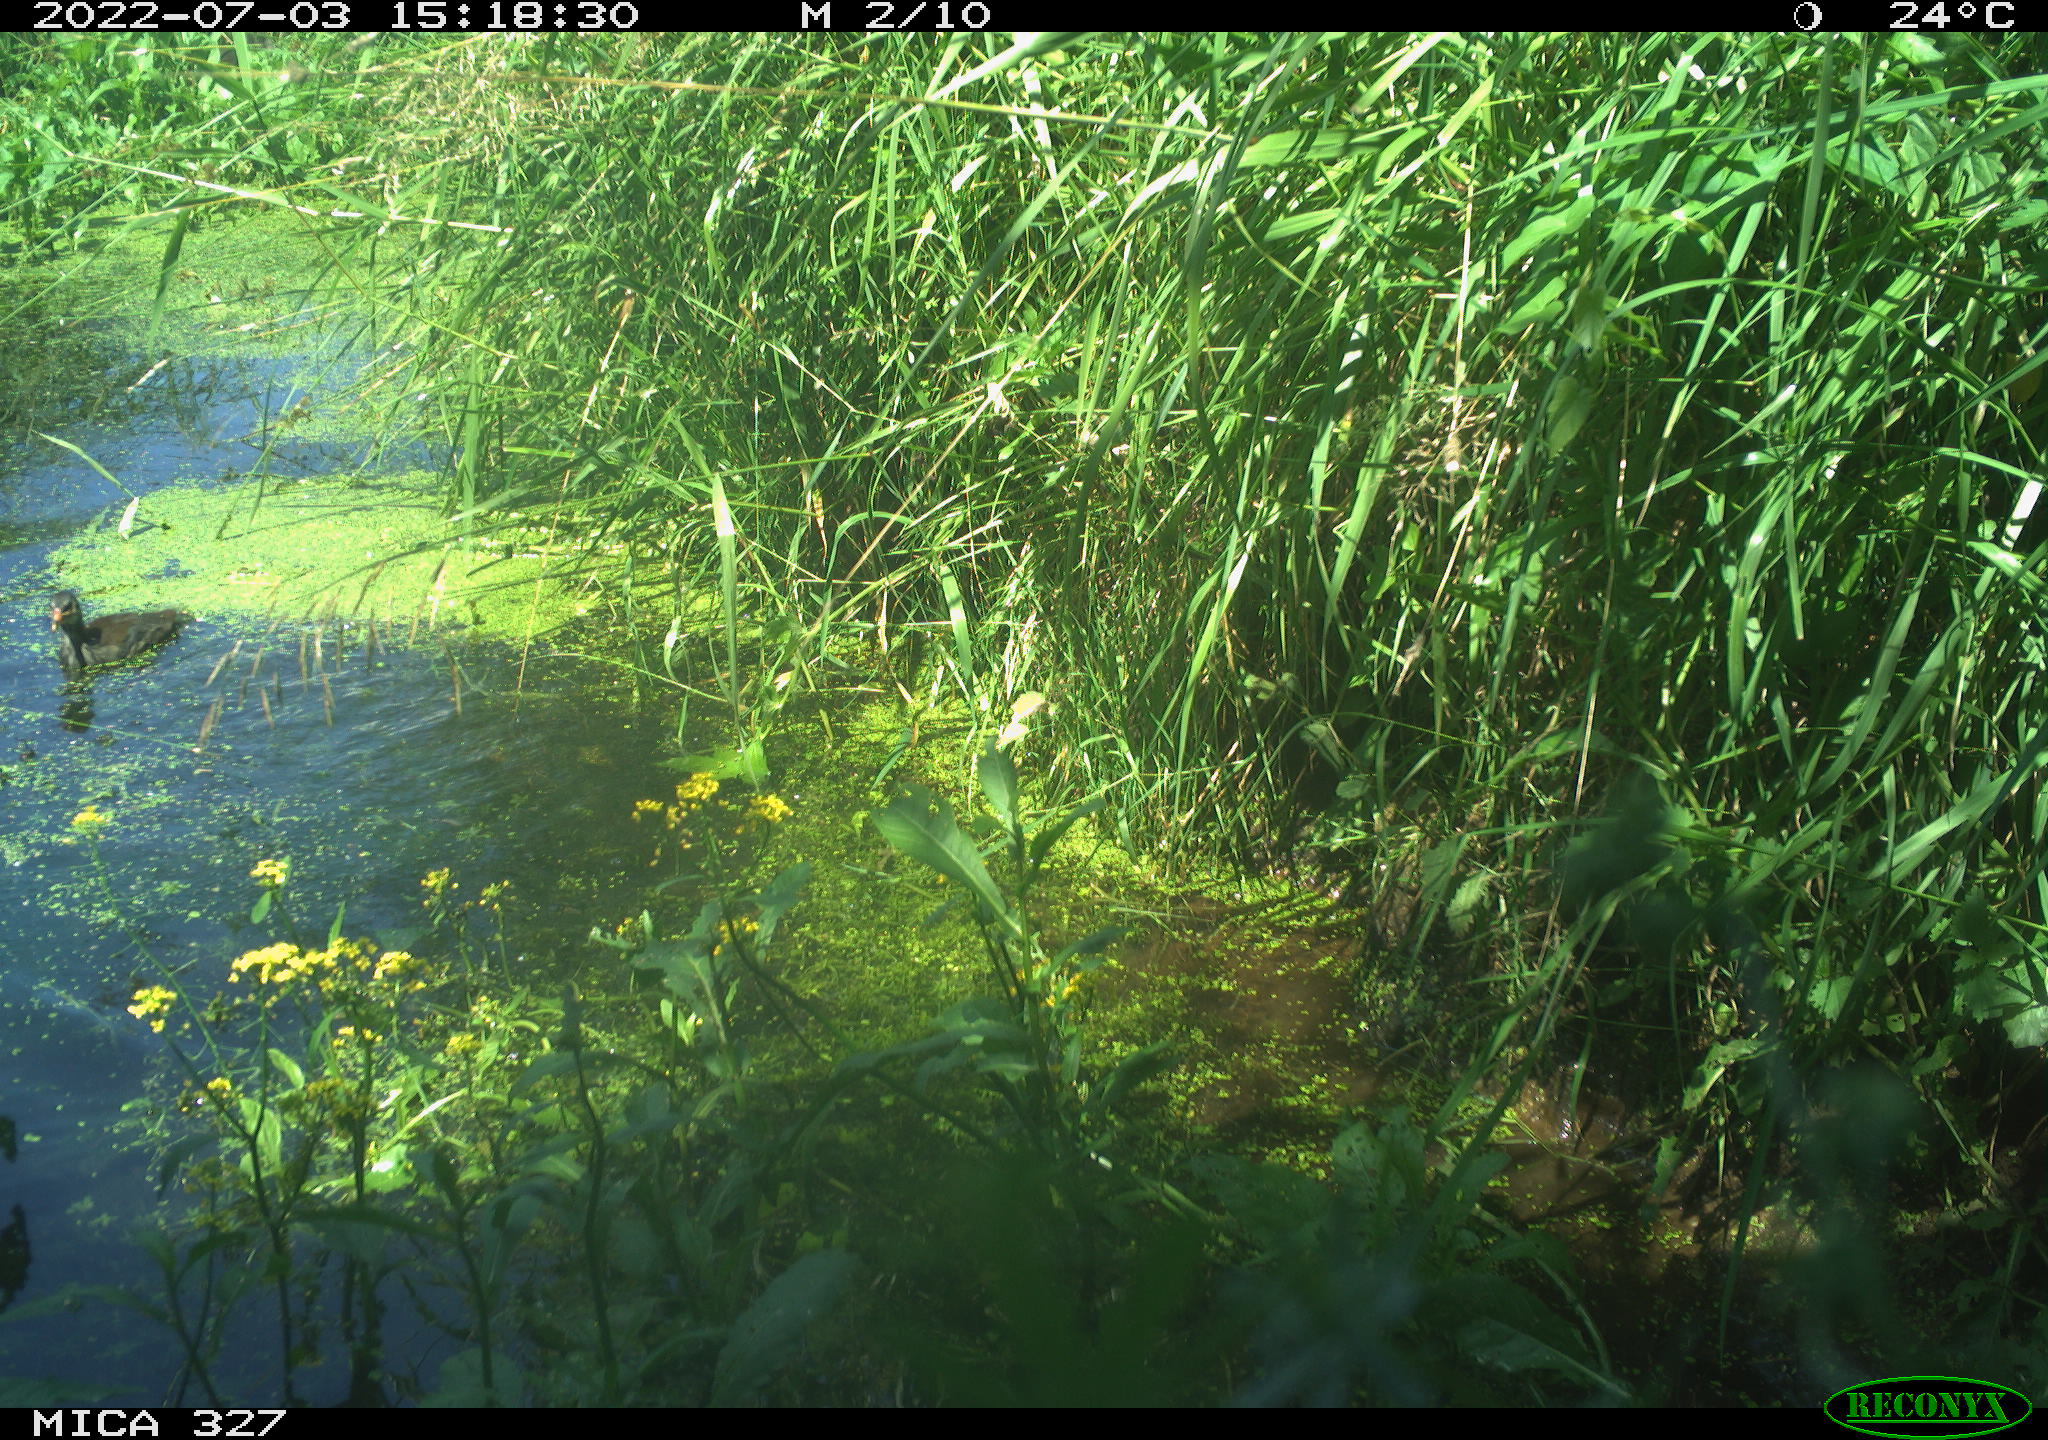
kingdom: Animalia
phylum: Chordata
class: Aves
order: Gruiformes
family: Rallidae
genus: Gallinula
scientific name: Gallinula chloropus
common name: Common moorhen
